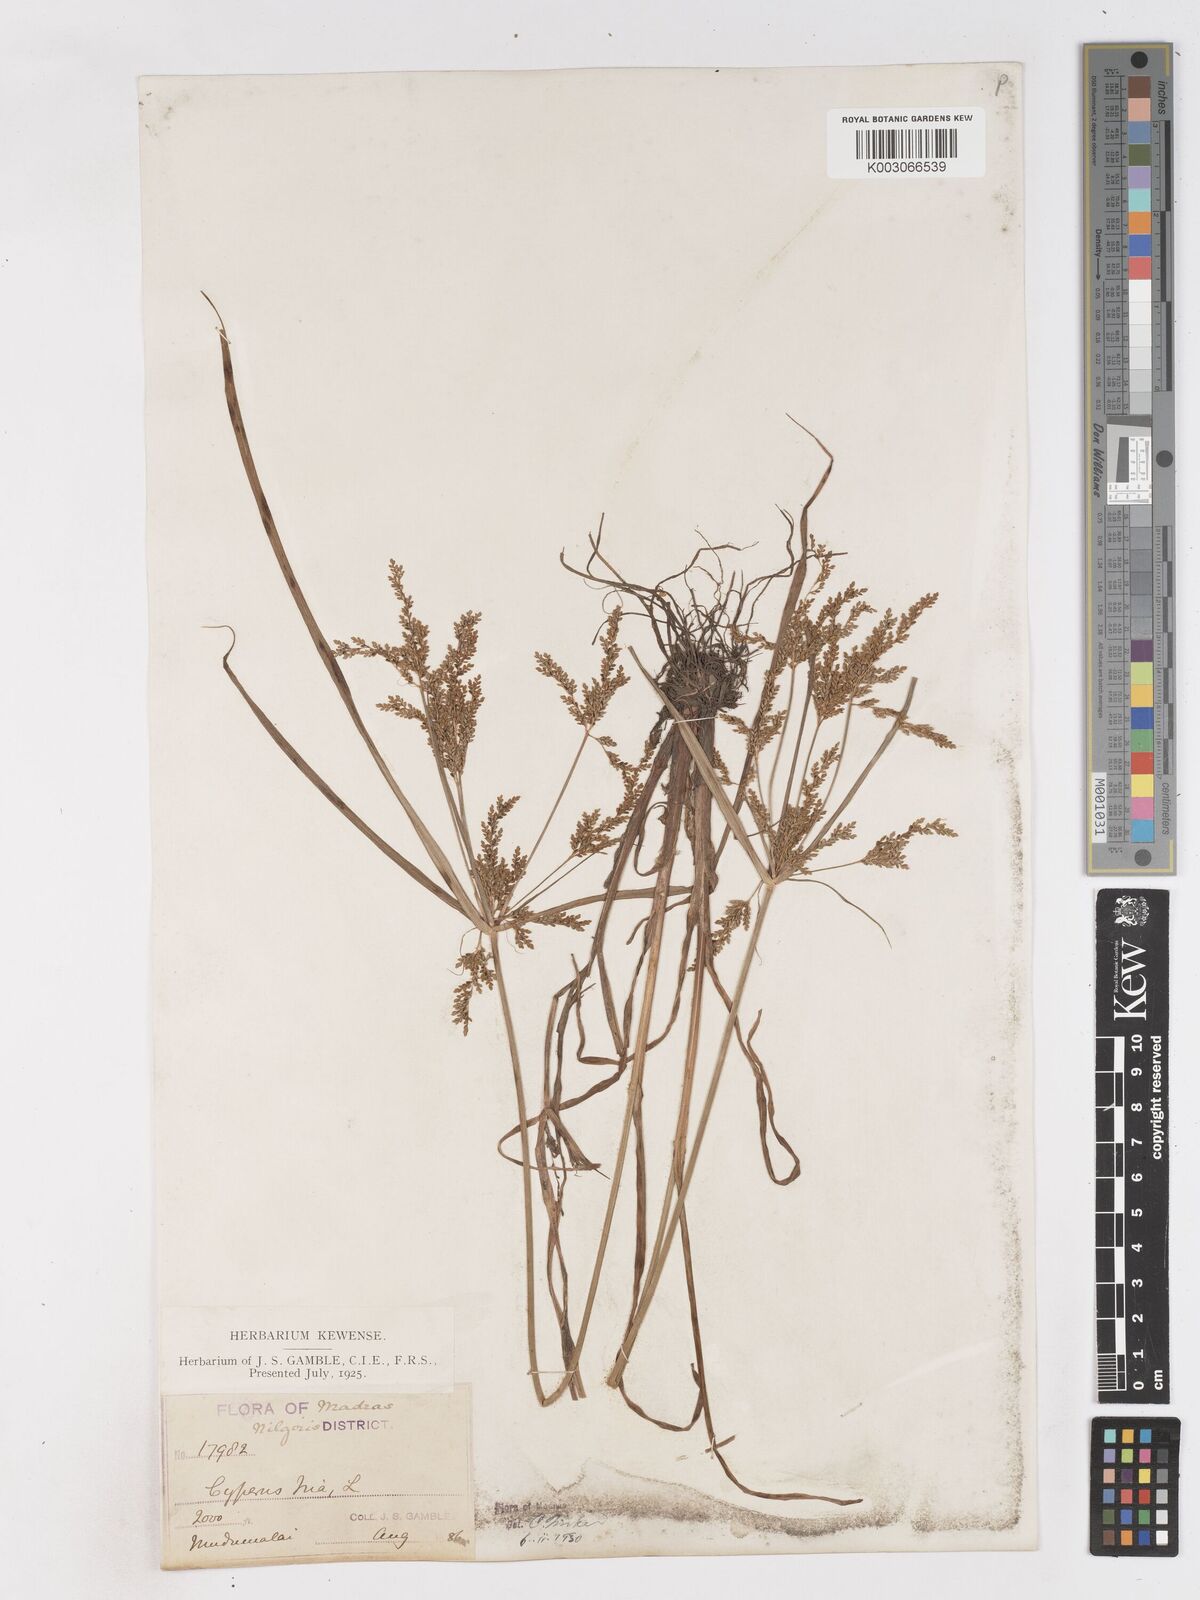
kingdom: Plantae
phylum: Tracheophyta
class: Liliopsida
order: Poales
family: Cyperaceae
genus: Cyperus
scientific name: Cyperus iria
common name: Ricefield flatsedge
